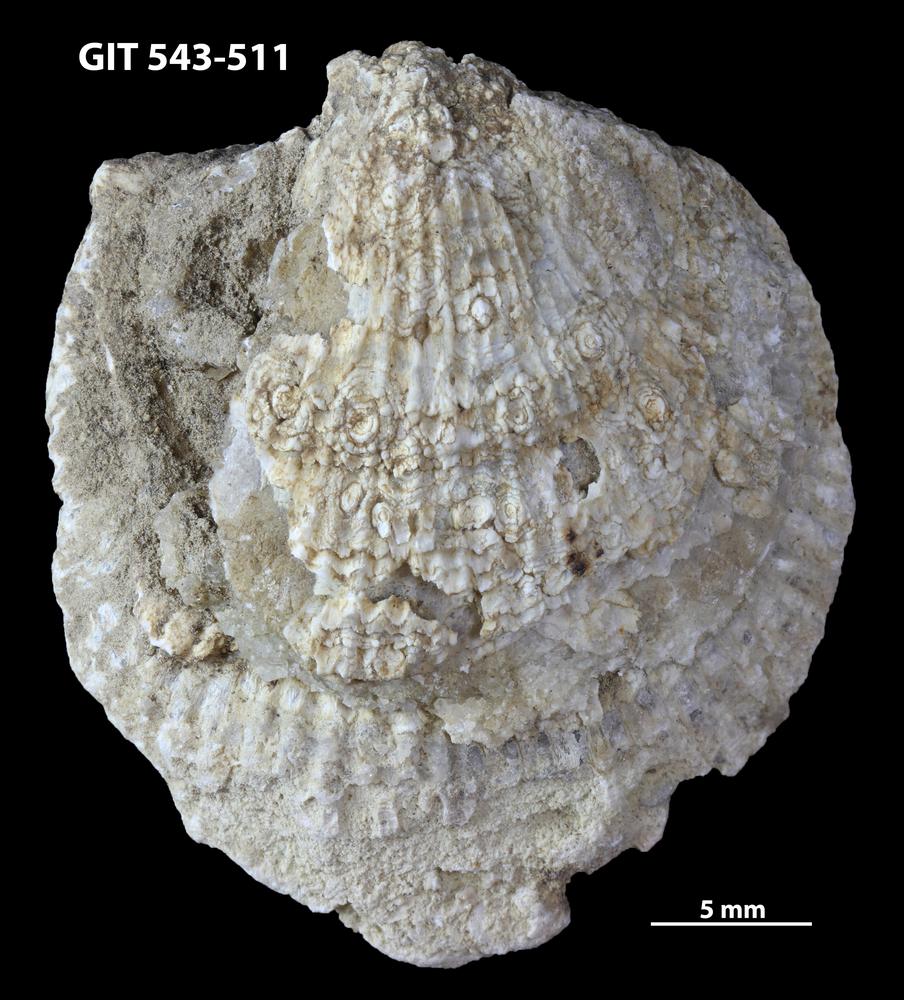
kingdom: Animalia
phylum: Brachiopoda
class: Rhynchonellata
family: Clitambonitidae
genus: Clitambonites
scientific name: Clitambonites
